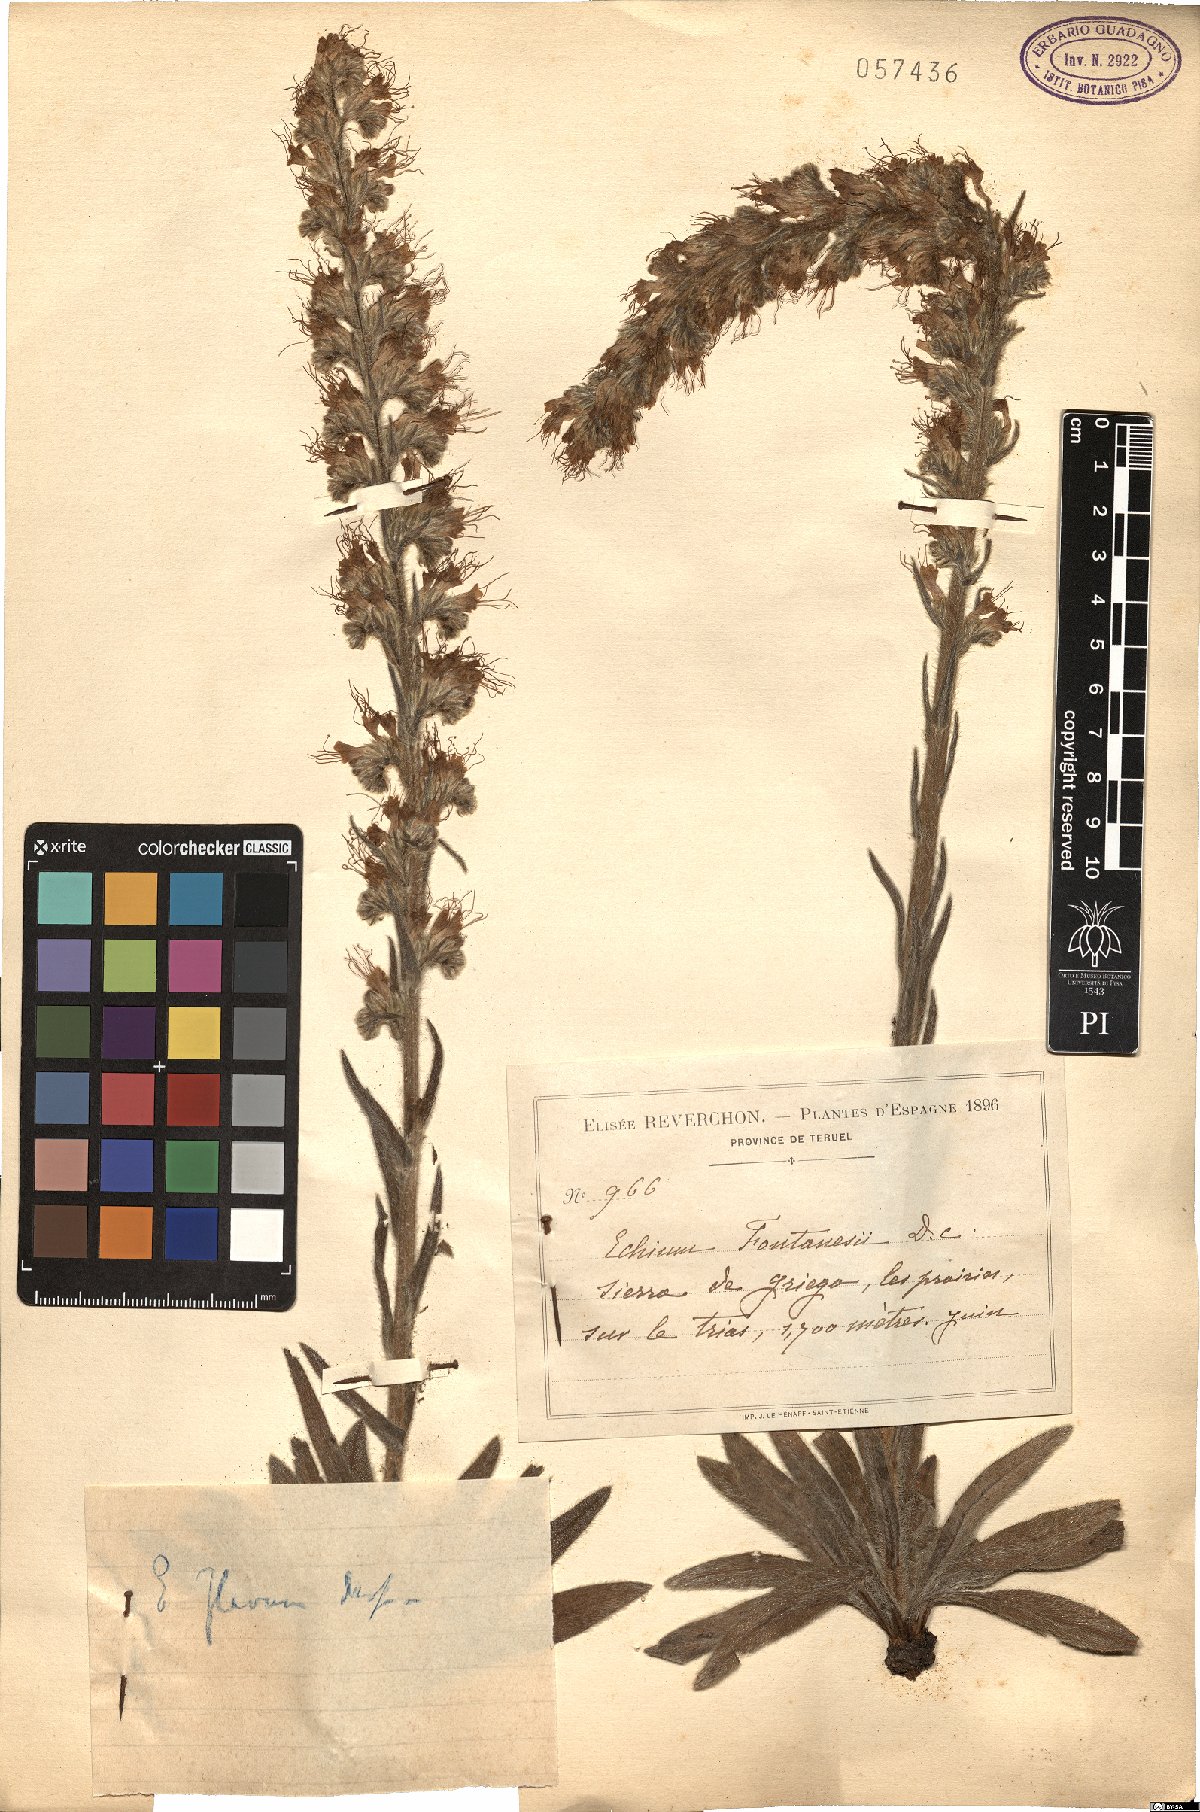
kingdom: Plantae
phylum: Tracheophyta
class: Magnoliopsida
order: Boraginales
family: Boraginaceae
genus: Echium
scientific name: Echium flavum
